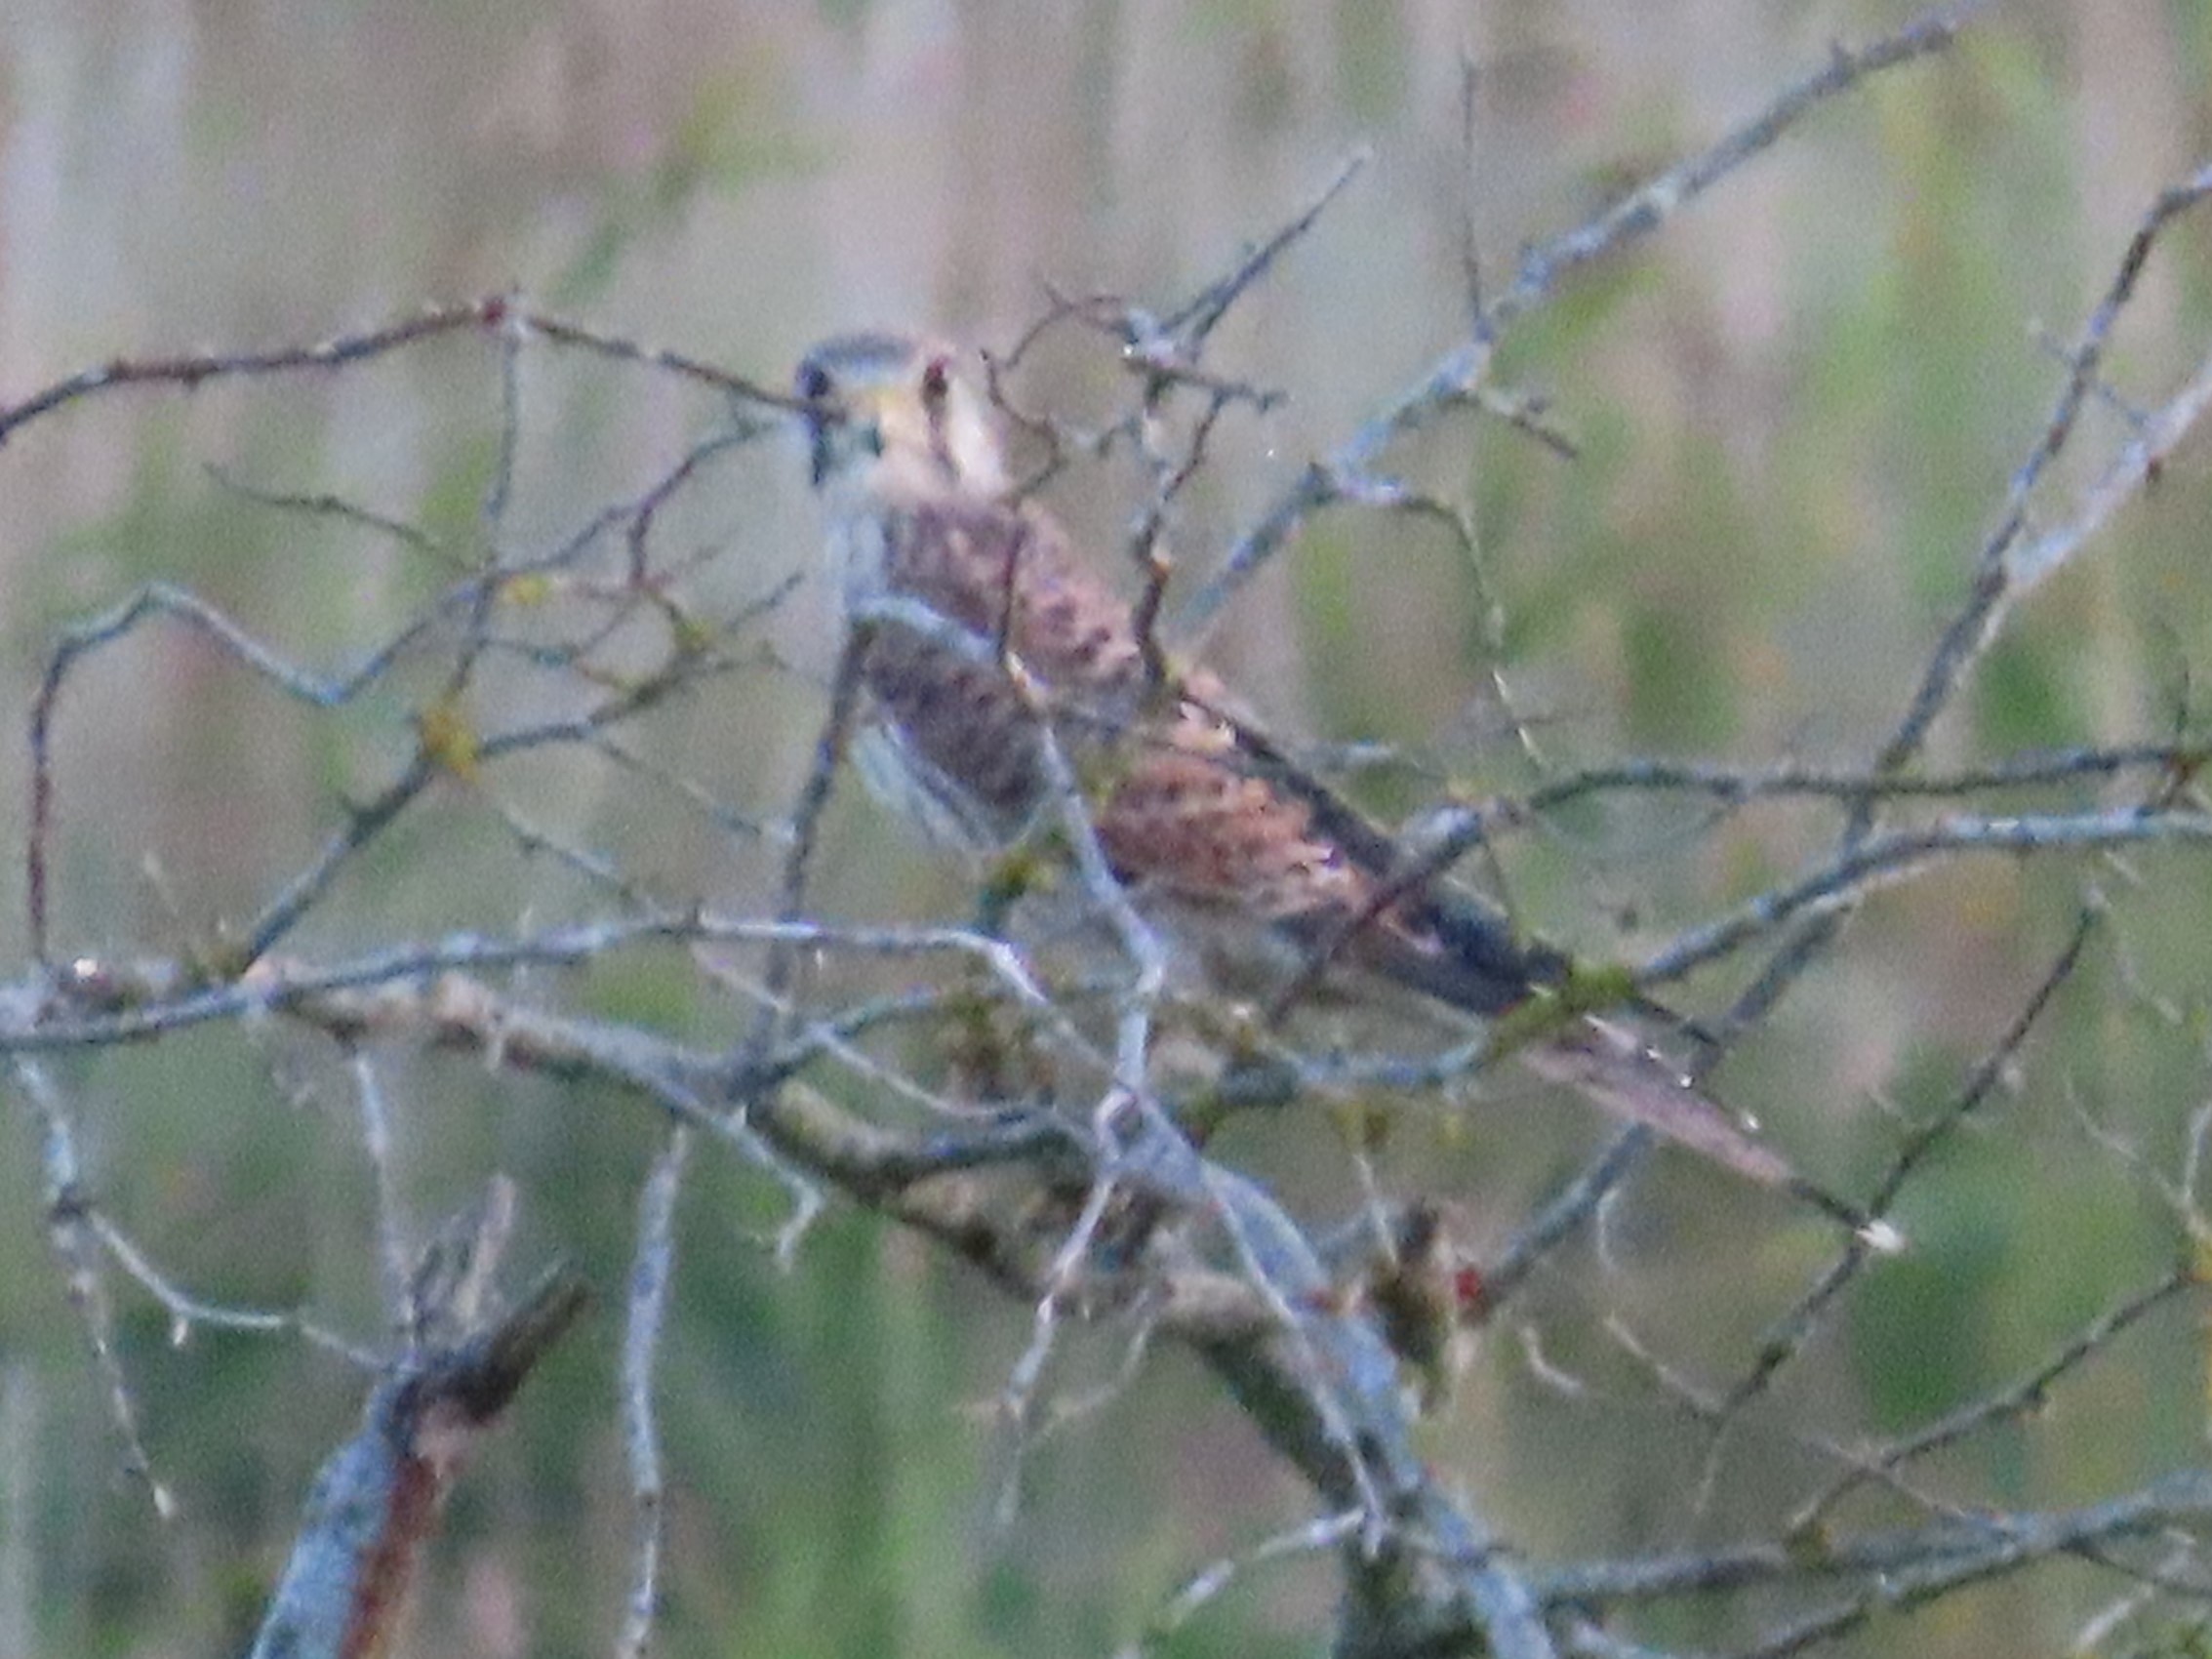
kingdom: Animalia
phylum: Chordata
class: Aves
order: Falconiformes
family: Falconidae
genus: Falco
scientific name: Falco tinnunculus
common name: Tårnfalk
